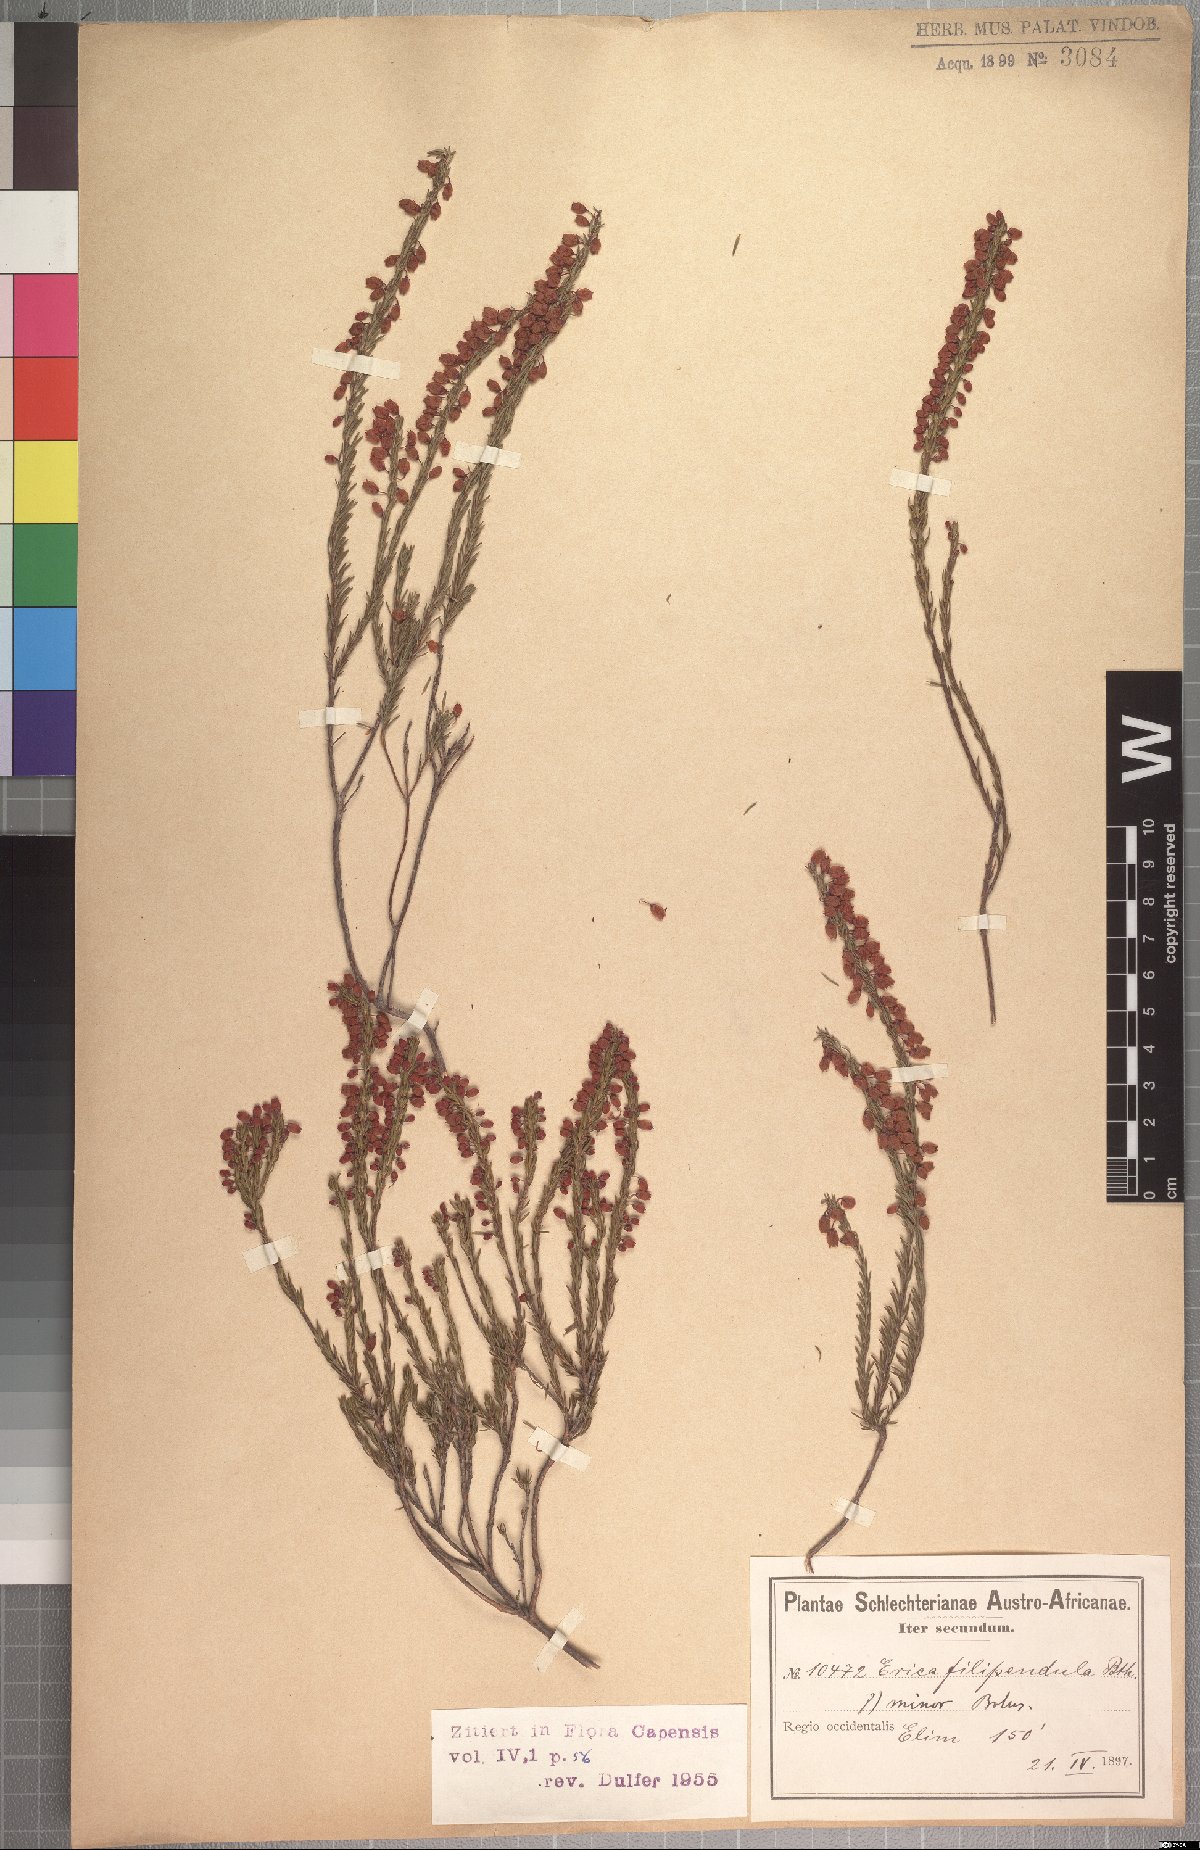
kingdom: Plantae
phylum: Tracheophyta
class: Magnoliopsida
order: Ericales
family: Ericaceae
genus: Erica
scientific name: Erica globulifera
